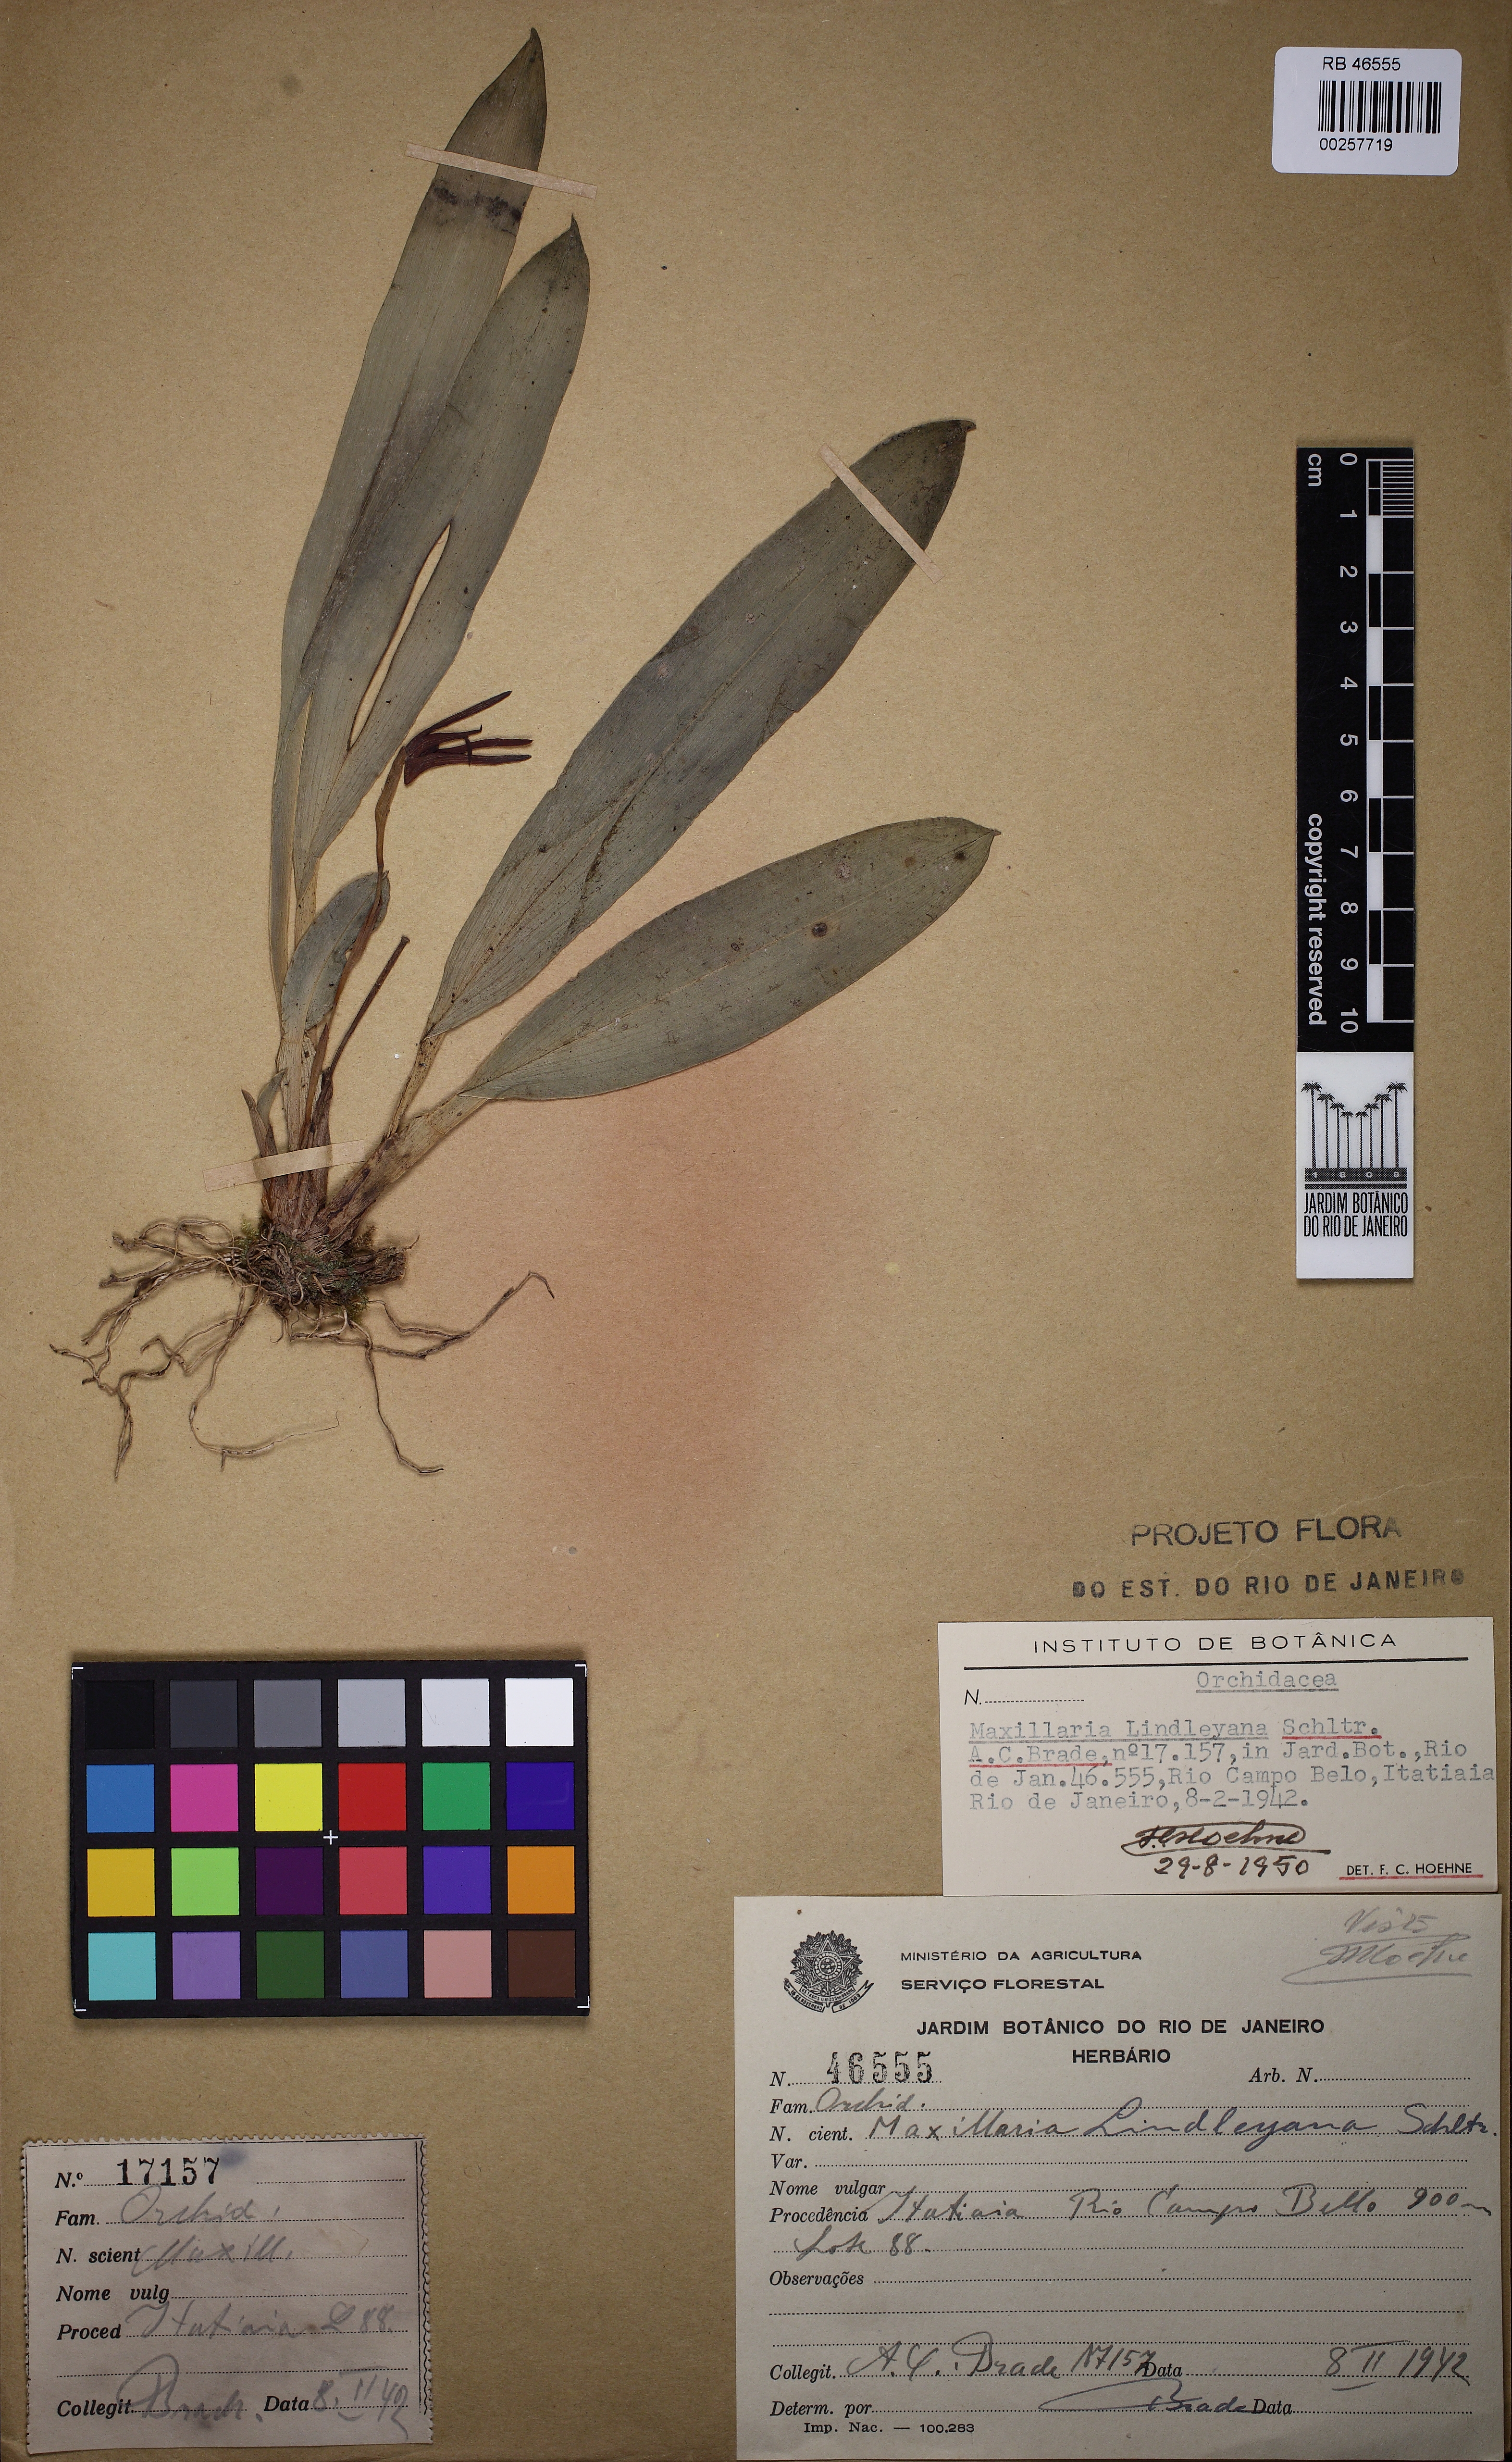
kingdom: Plantae
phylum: Tracheophyta
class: Liliopsida
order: Asparagales
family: Orchidaceae
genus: Maxillaria
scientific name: Maxillaria crocea
